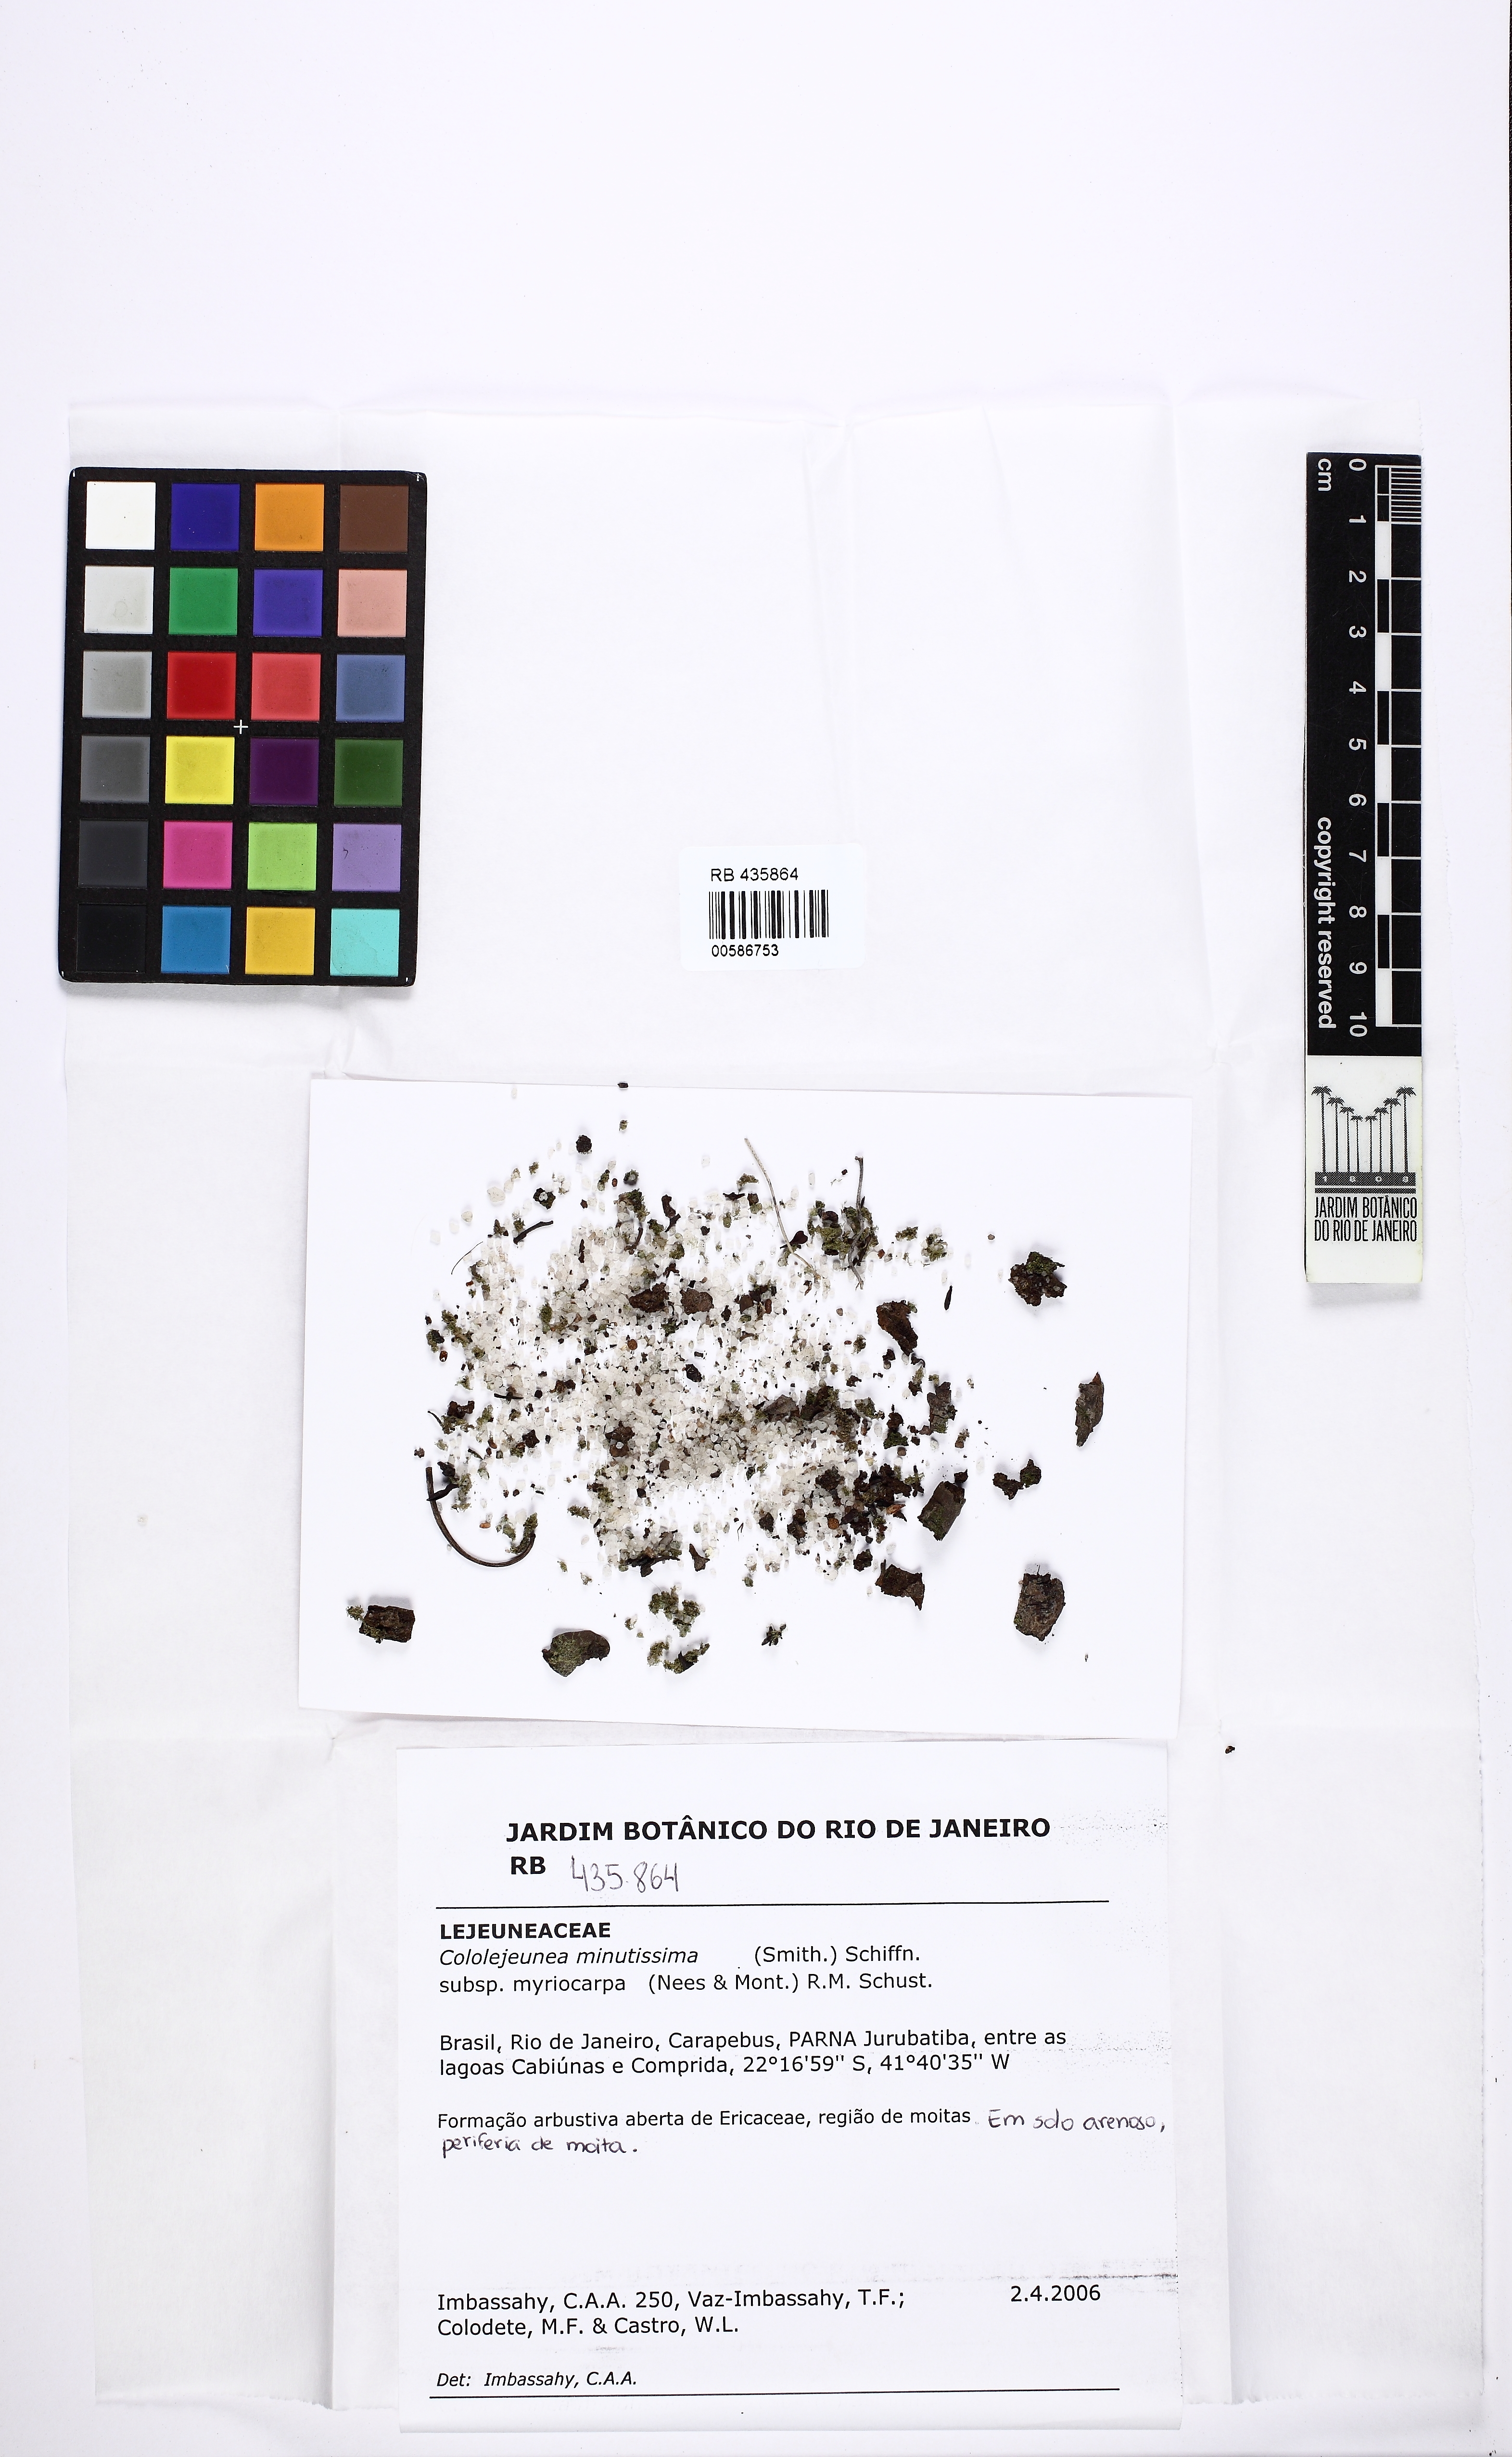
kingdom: Plantae
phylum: Marchantiophyta
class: Jungermanniopsida
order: Porellales
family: Lejeuneaceae
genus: Myriocoleopsis
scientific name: Myriocoleopsis minutissima
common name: Minute pouncewort
